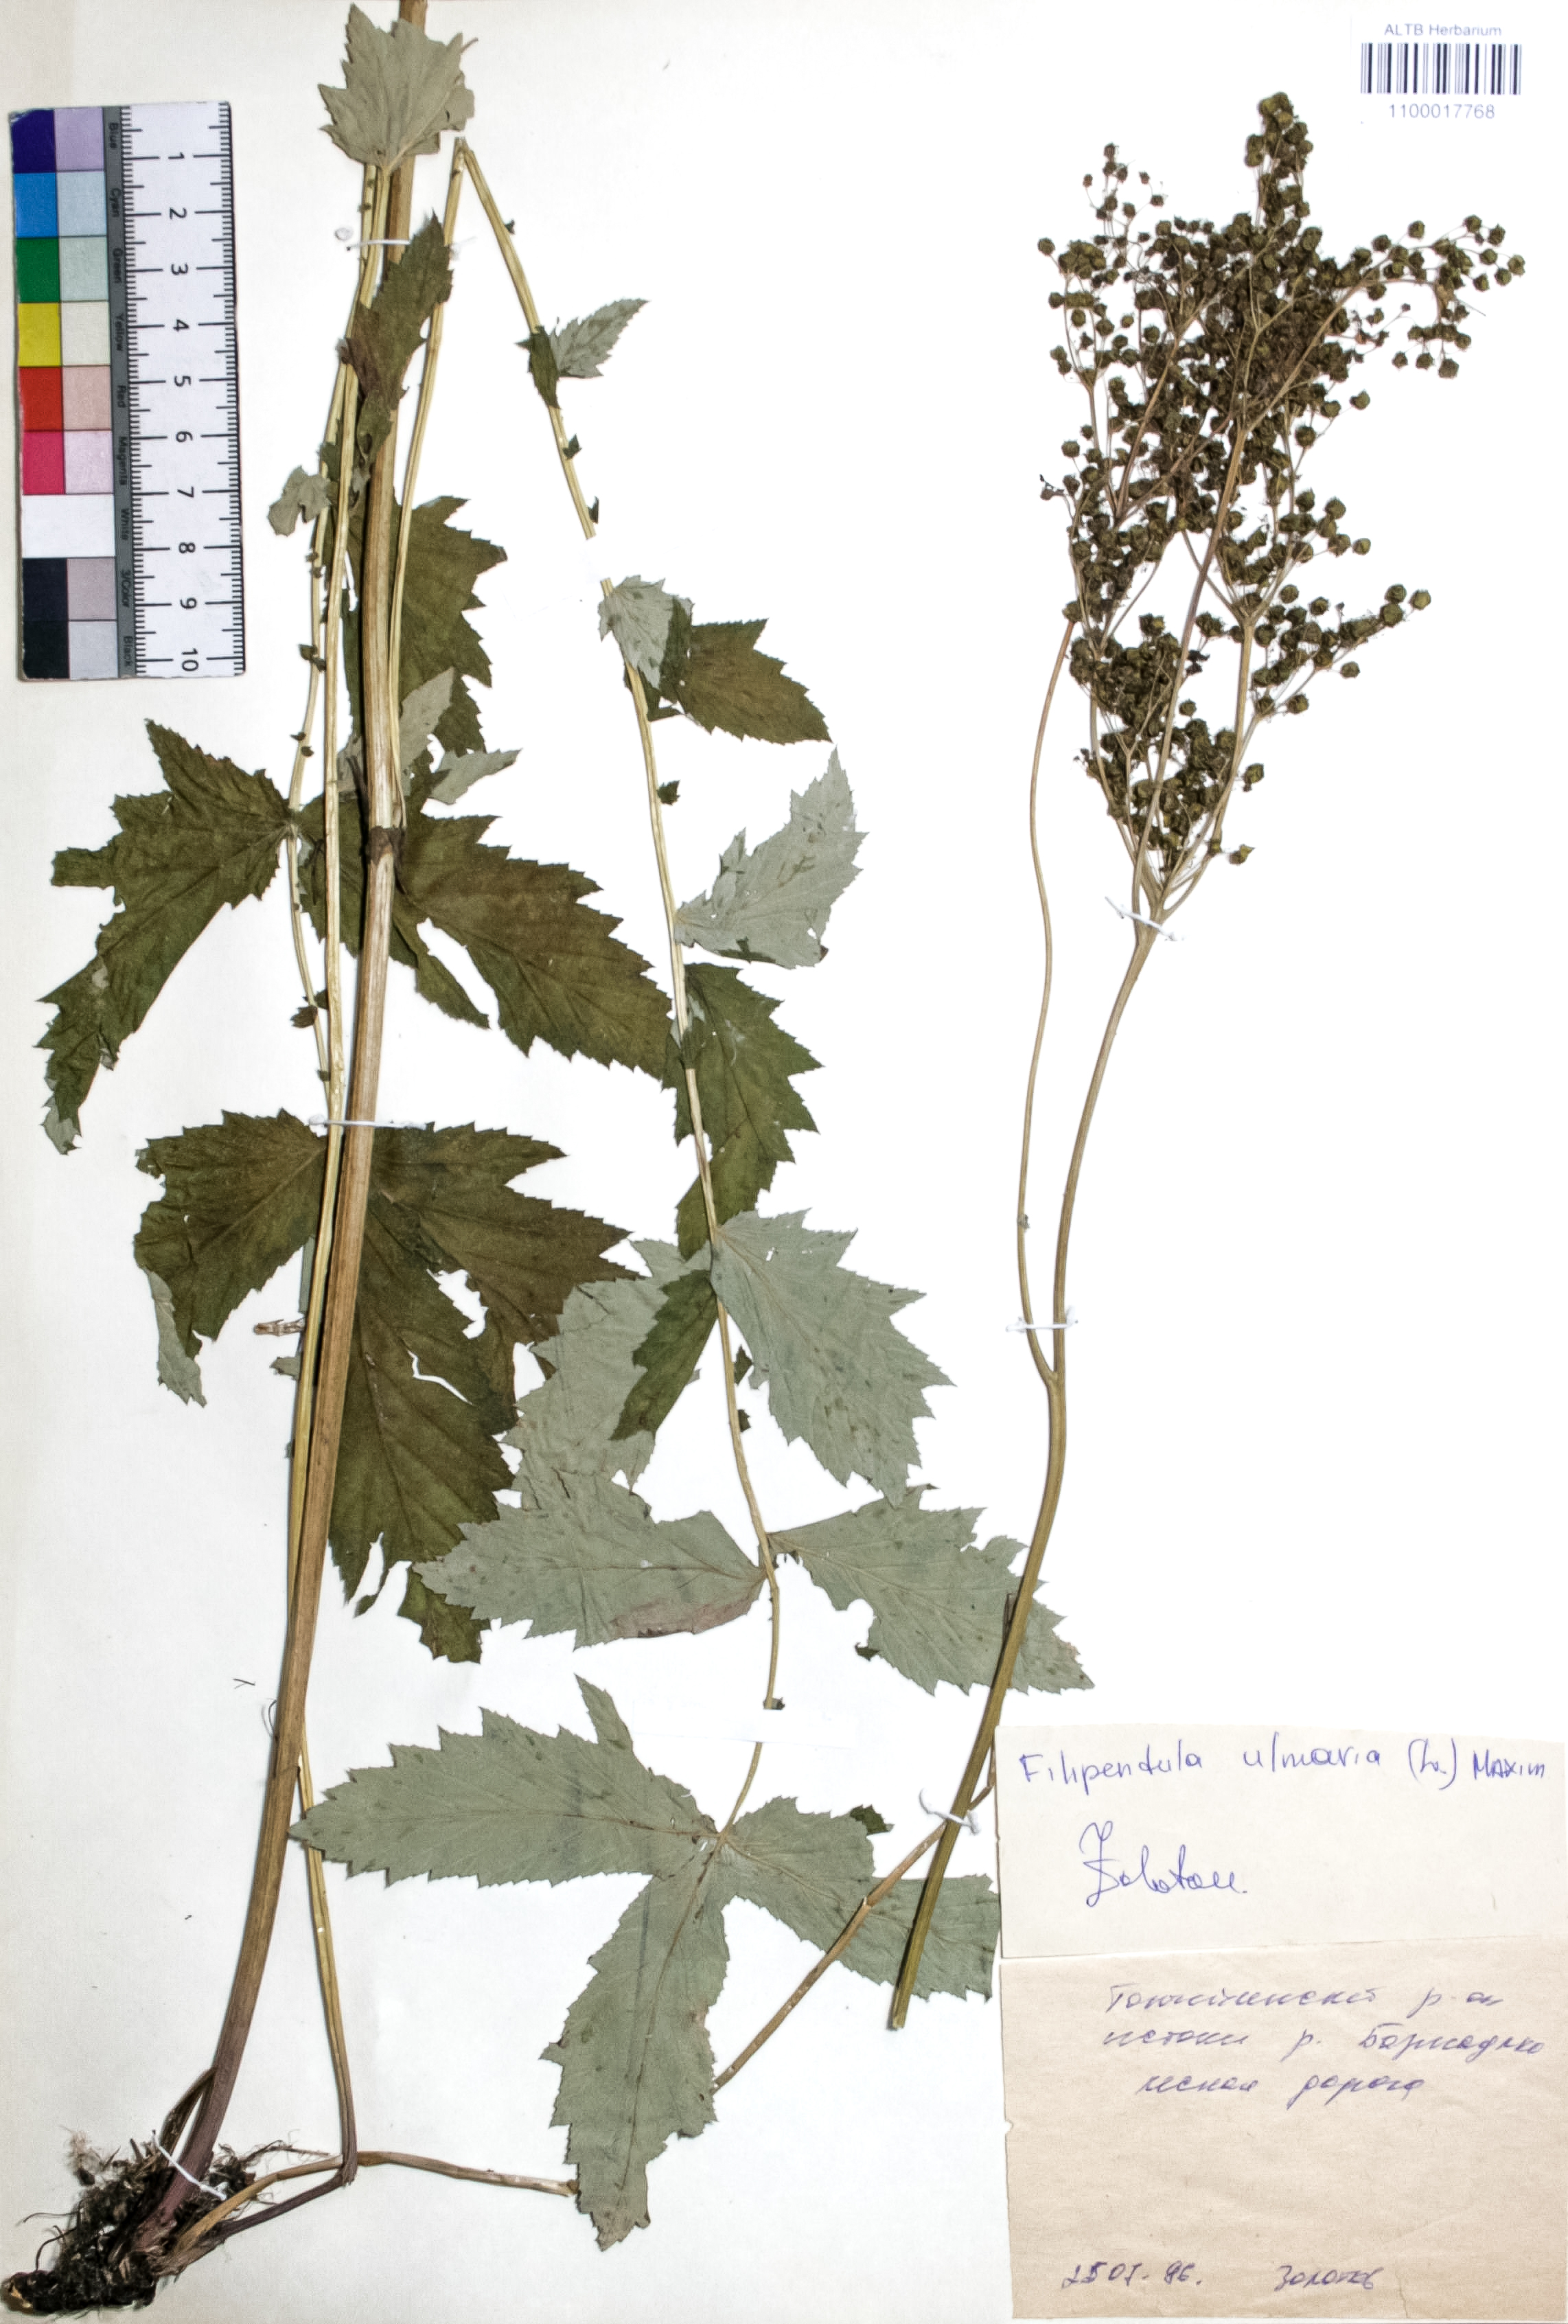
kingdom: Plantae
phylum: Tracheophyta
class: Magnoliopsida
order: Rosales
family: Rosaceae
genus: Filipendula
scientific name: Filipendula ulmaria
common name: Meadowsweet
